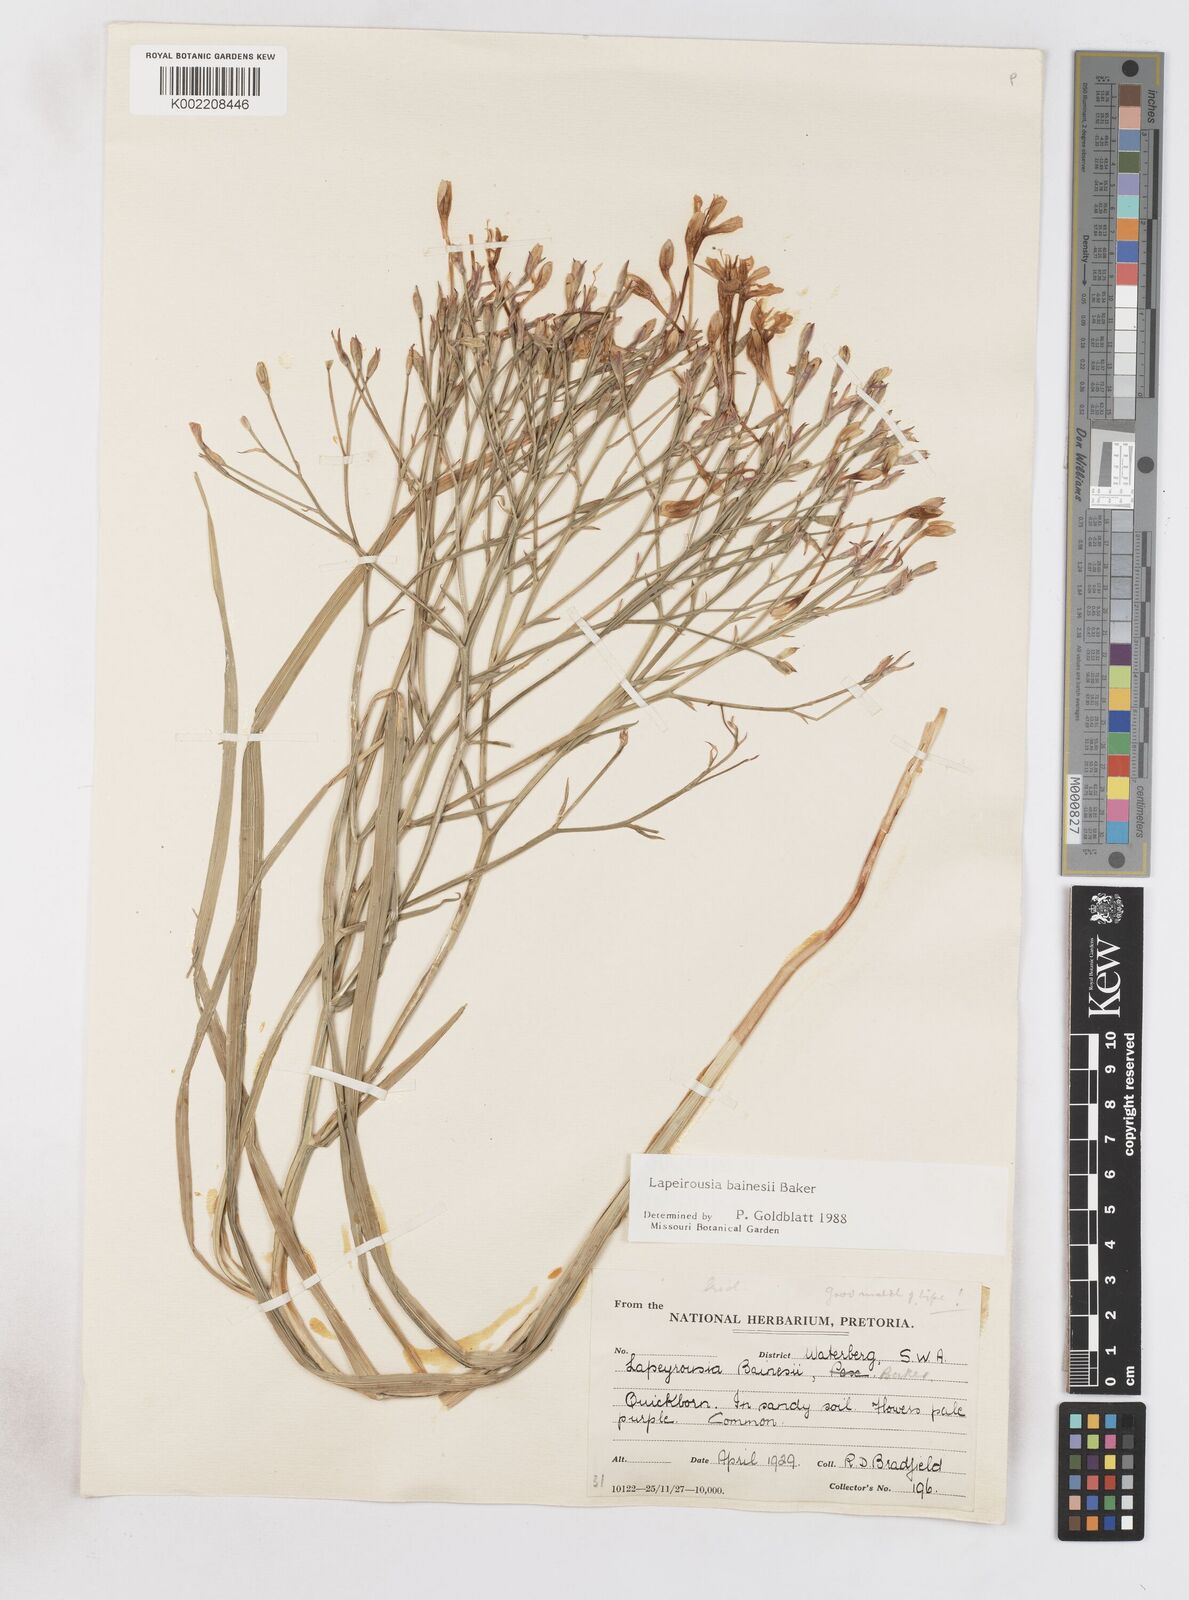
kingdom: Plantae
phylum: Tracheophyta
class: Liliopsida
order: Asparagales
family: Iridaceae
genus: Afrosolen
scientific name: Afrosolen erythranthus
